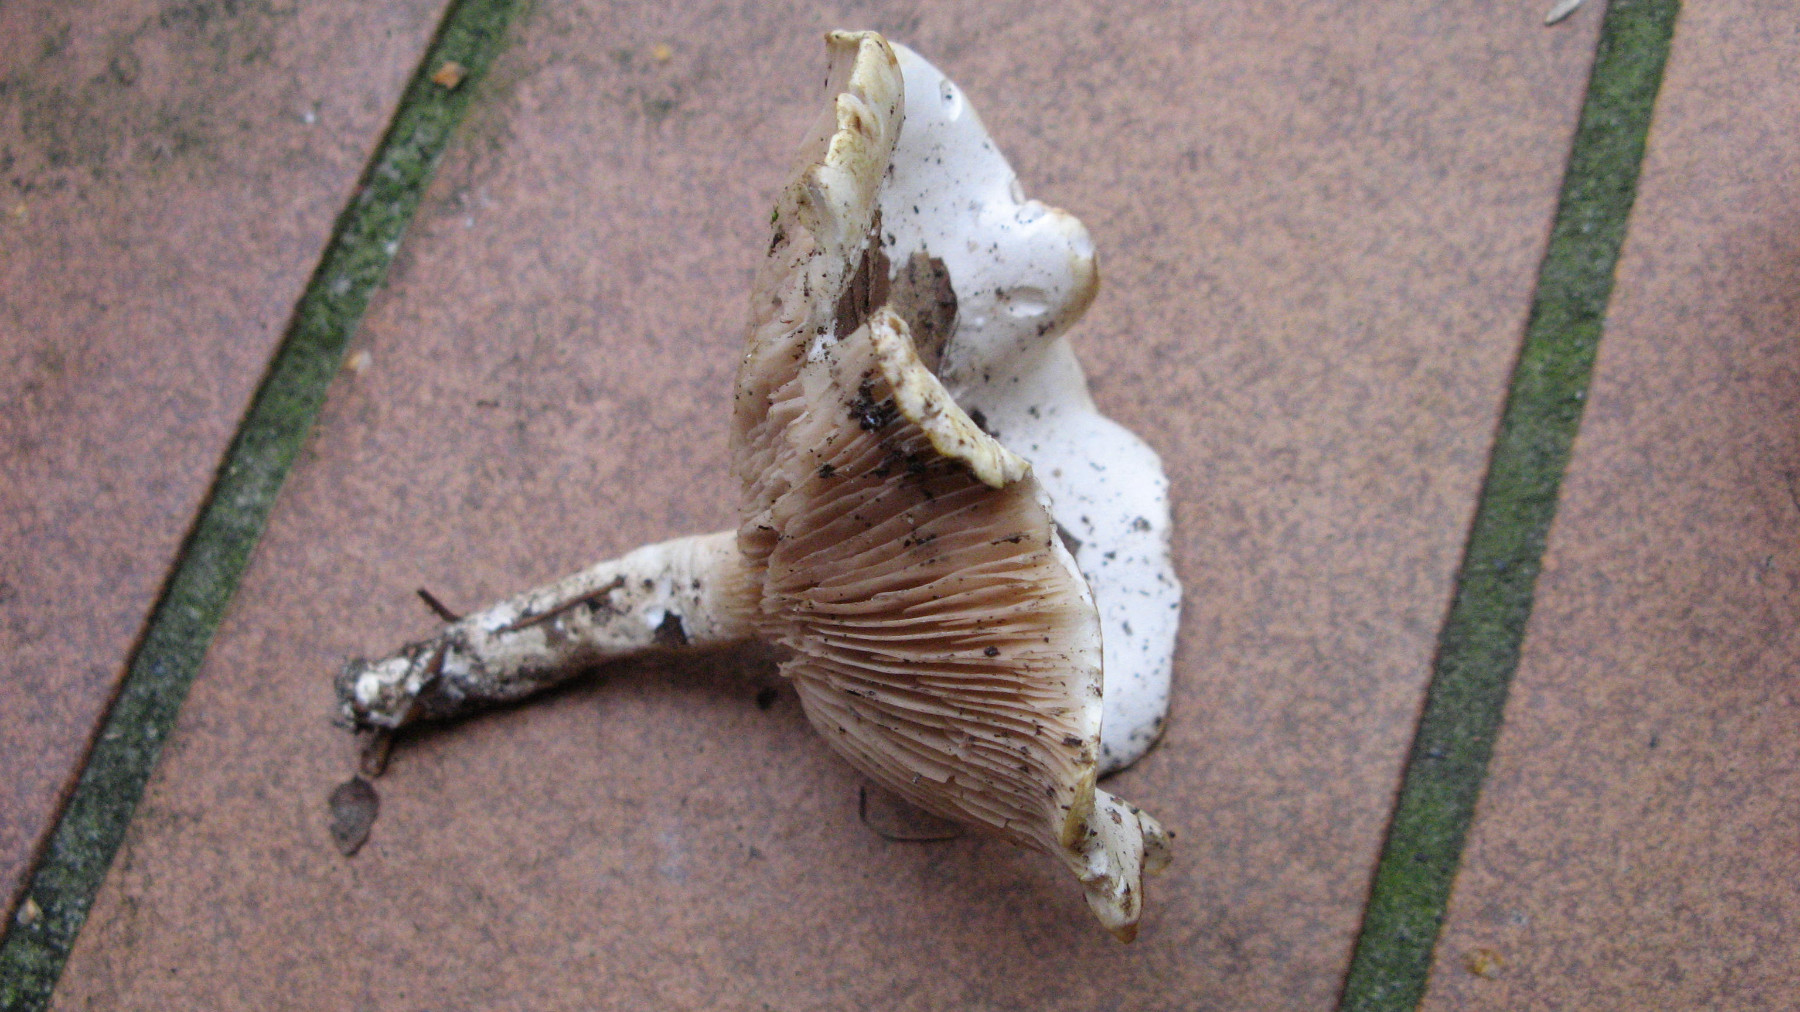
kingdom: Fungi
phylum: Basidiomycota
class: Agaricomycetes
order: Agaricales
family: Entolomataceae
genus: Clitopilus
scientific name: Clitopilus prunulus
